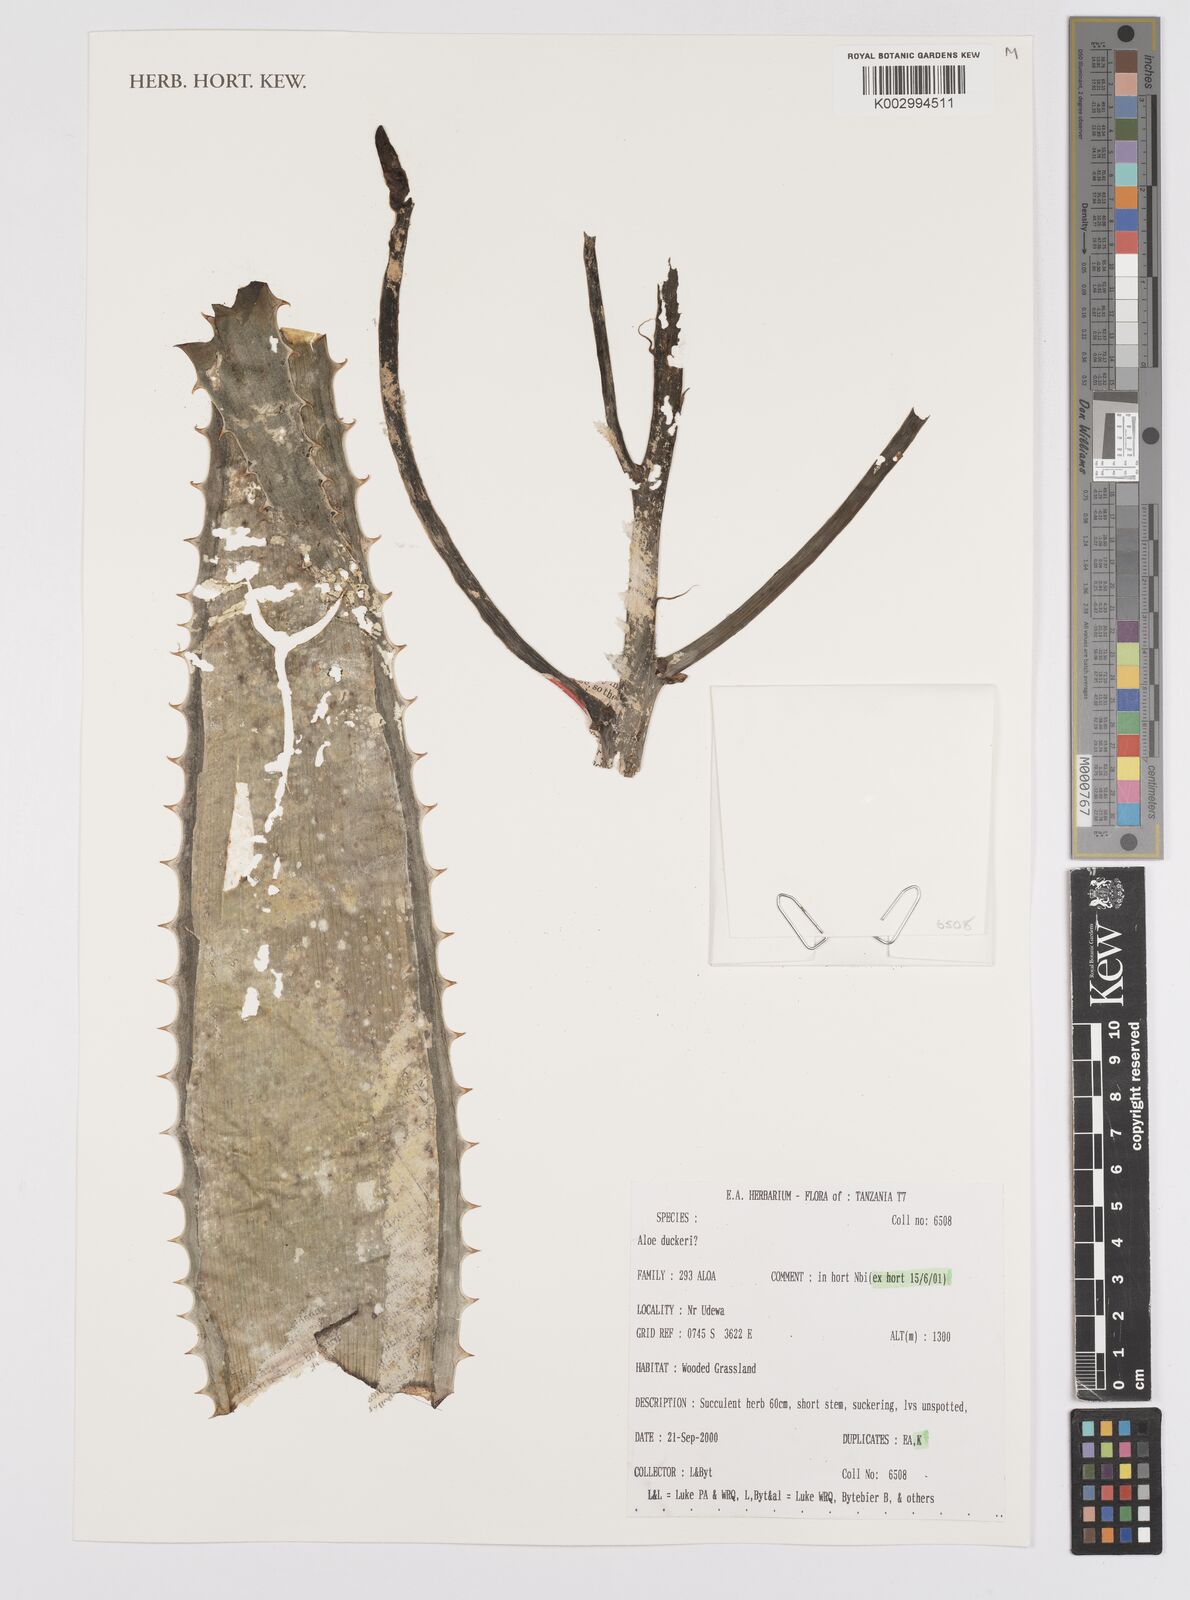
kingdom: Plantae
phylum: Tracheophyta
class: Liliopsida
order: Asparagales
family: Asphodelaceae
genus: Aloe
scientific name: Aloe duckeri
